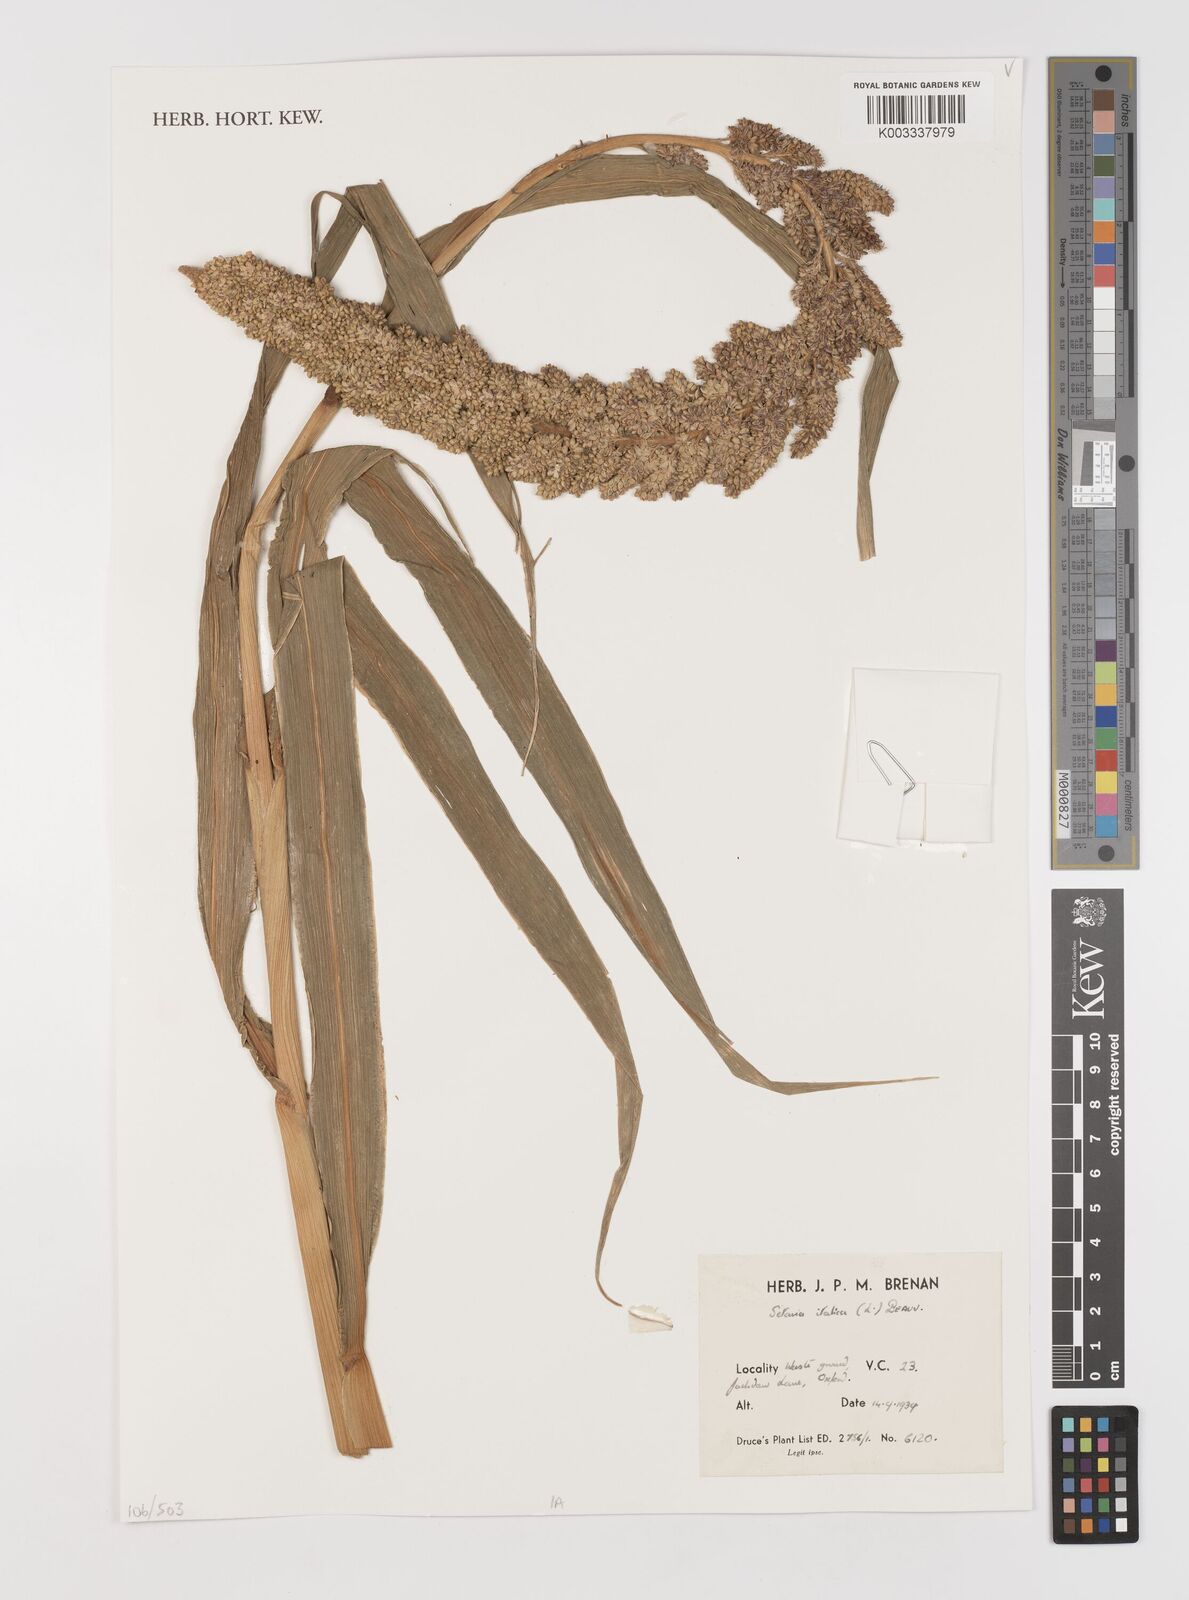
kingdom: Plantae
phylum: Tracheophyta
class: Liliopsida
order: Poales
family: Poaceae
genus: Setaria
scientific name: Setaria italica
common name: Foxtail bristle-grass
